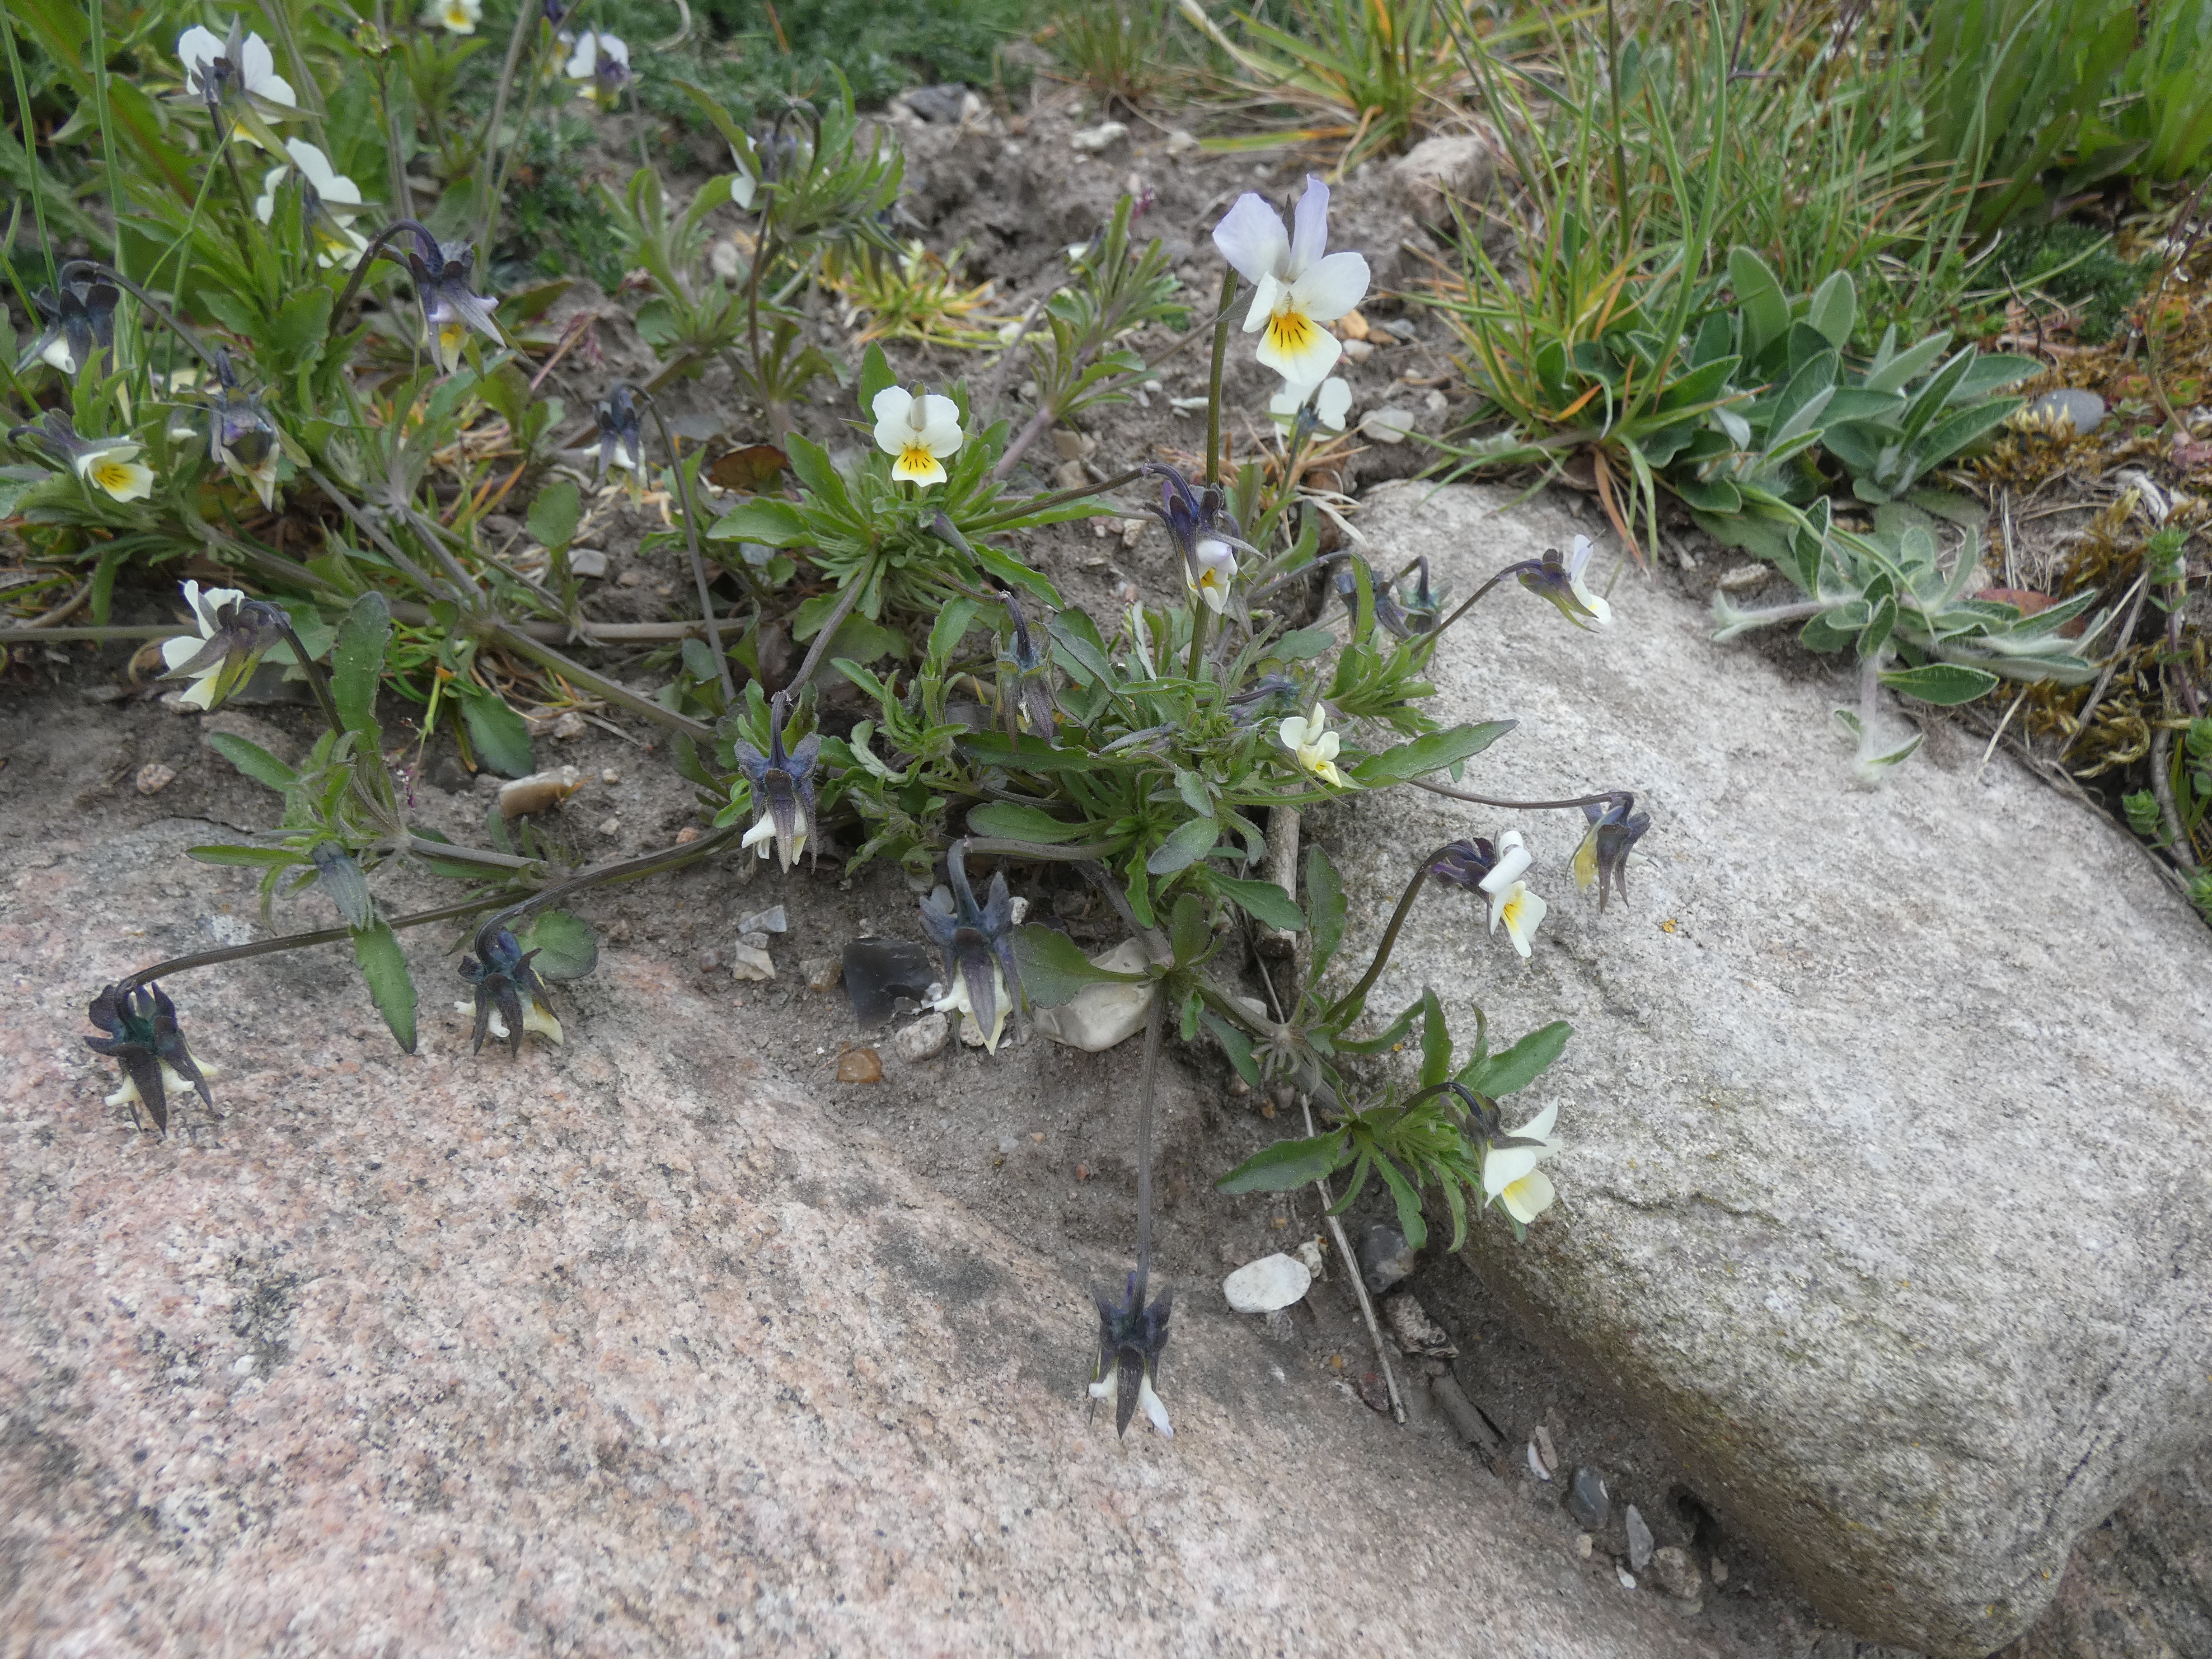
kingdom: Plantae
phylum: Tracheophyta
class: Magnoliopsida
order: Malpighiales
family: Violaceae
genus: Viola
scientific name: Viola arvensis
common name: Ager-stedmoderblomst
